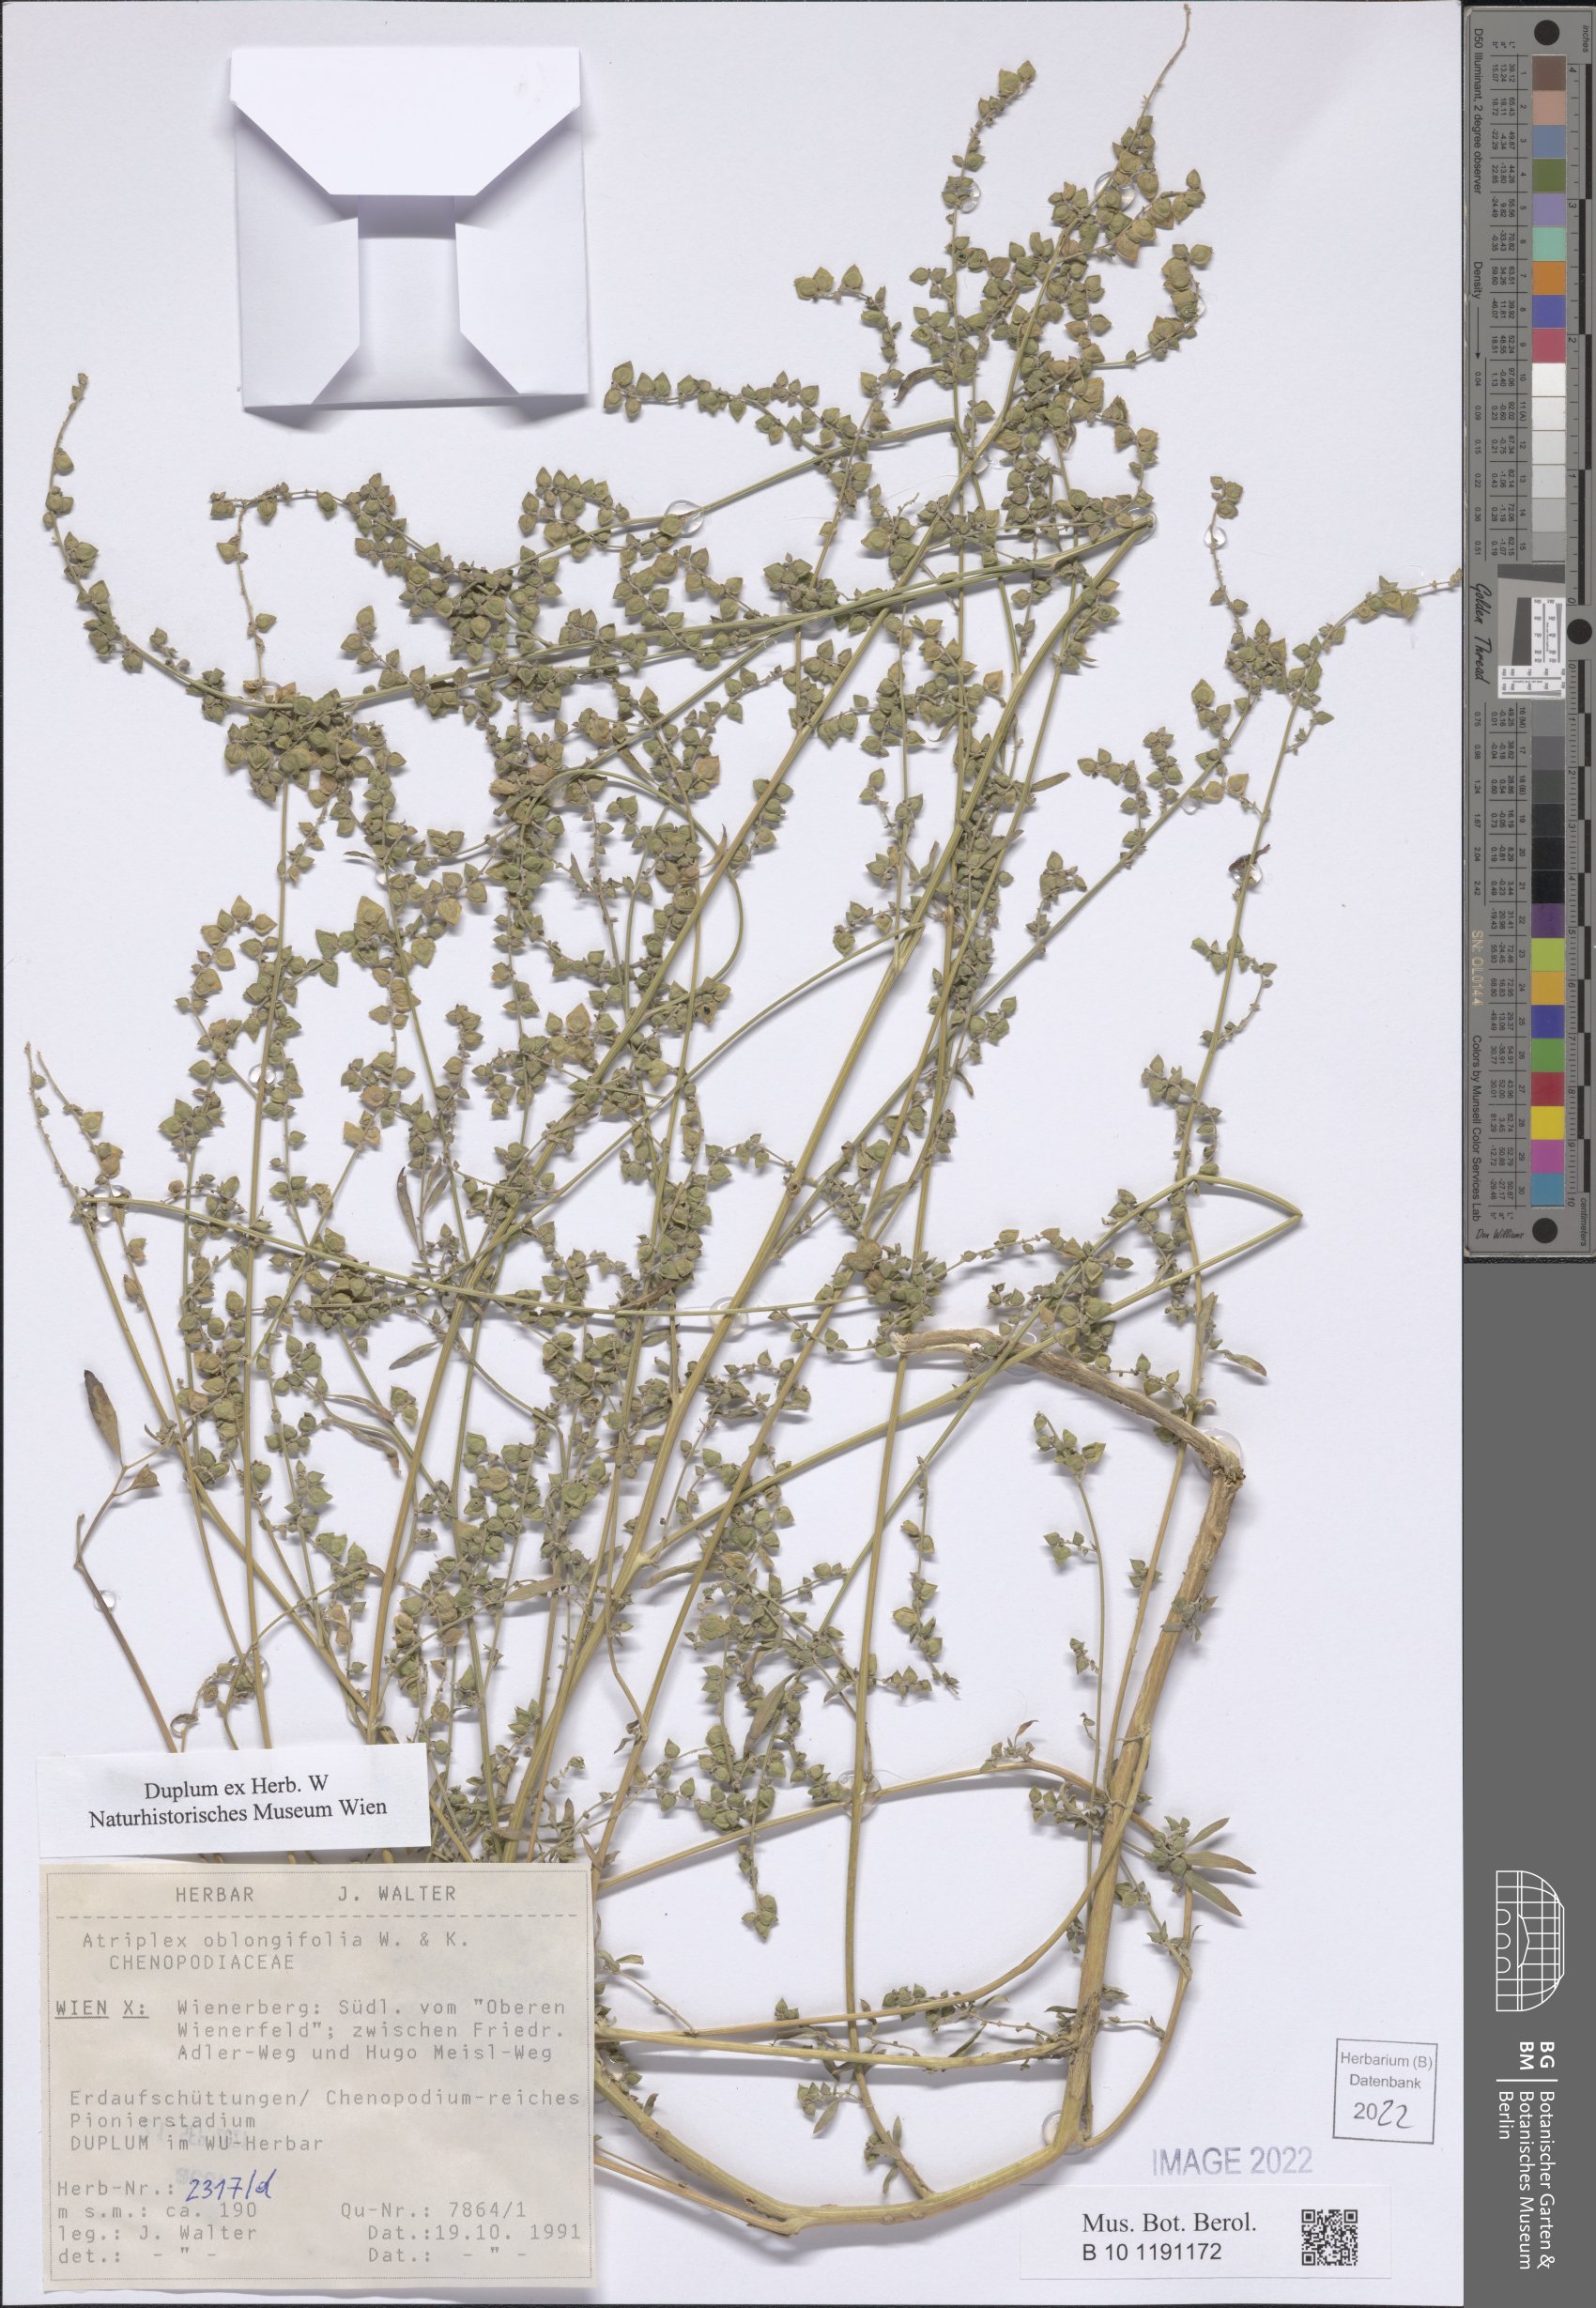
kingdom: Plantae
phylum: Tracheophyta
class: Magnoliopsida
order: Caryophyllales
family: Amaranthaceae
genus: Atriplex
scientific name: Atriplex oblongifolia
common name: Oblongleaf orache
